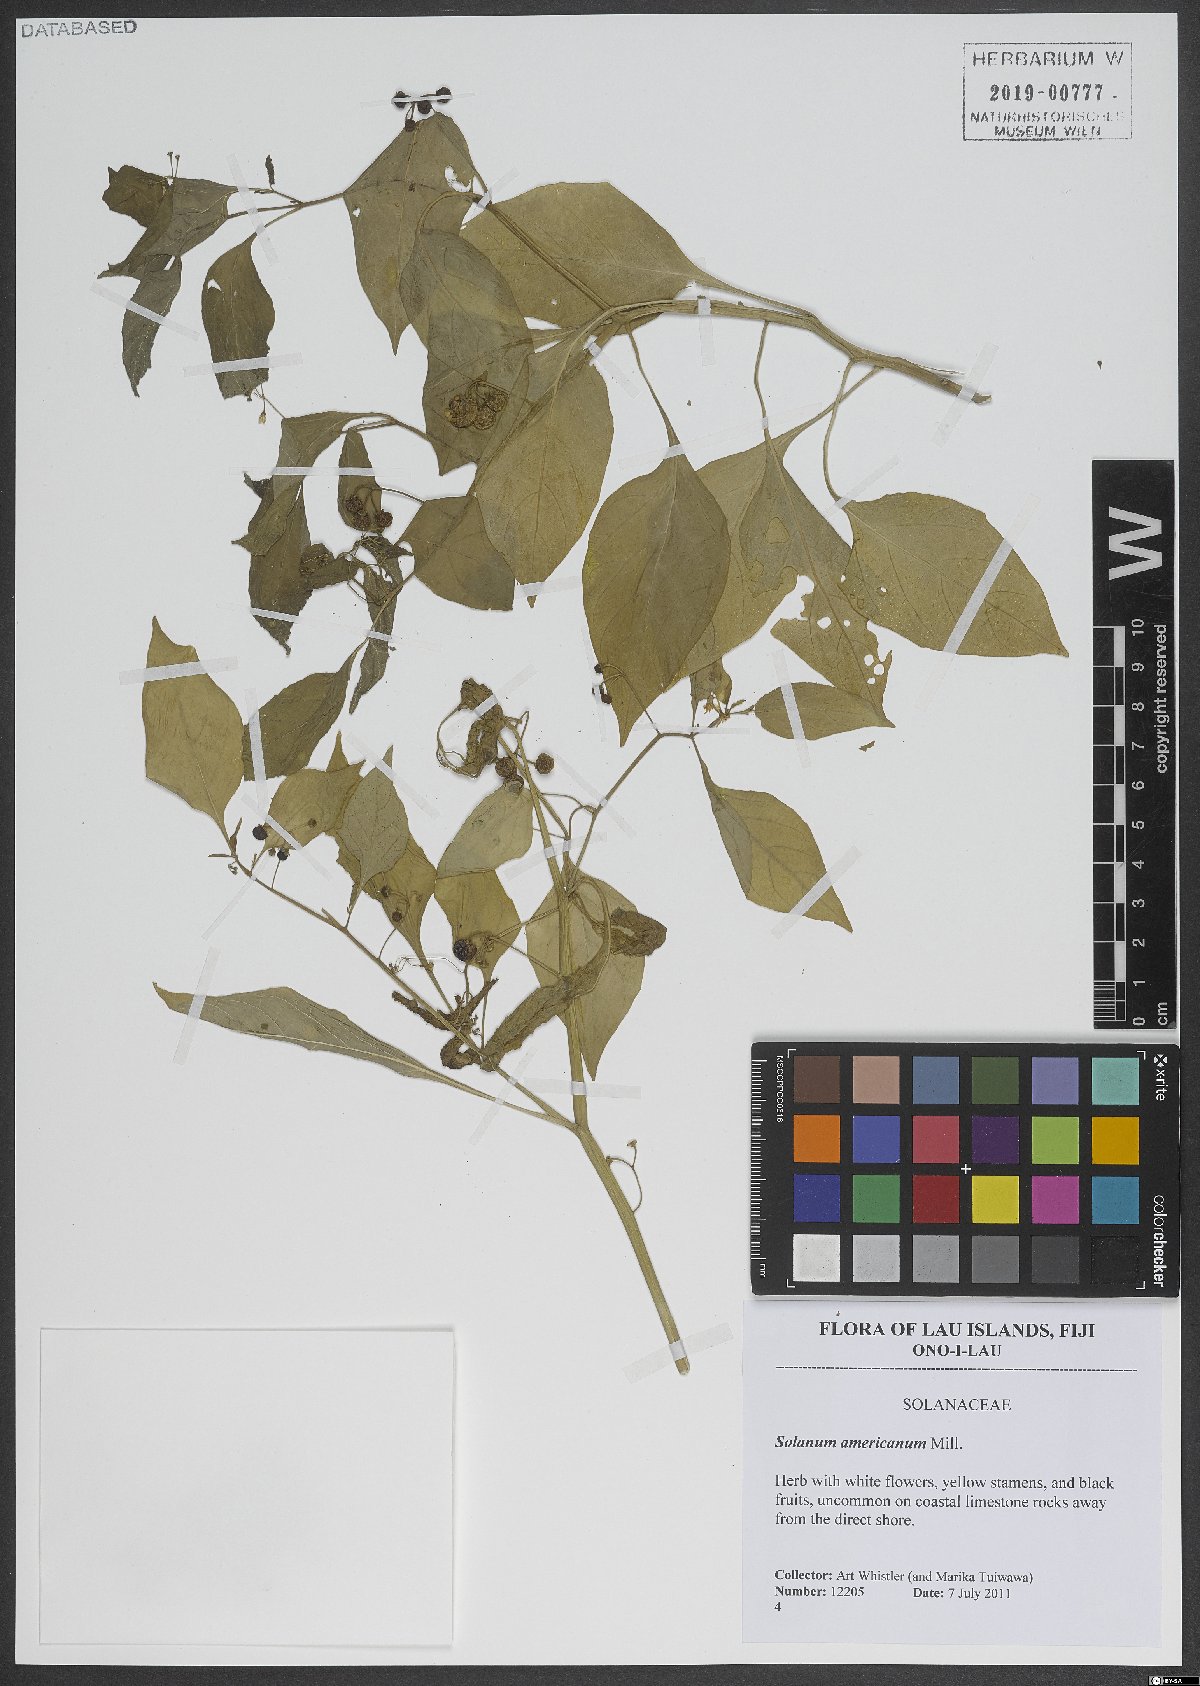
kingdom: Plantae
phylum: Tracheophyta
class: Magnoliopsida
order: Solanales
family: Solanaceae
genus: Solanum
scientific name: Solanum americanum
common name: American black nightshade
